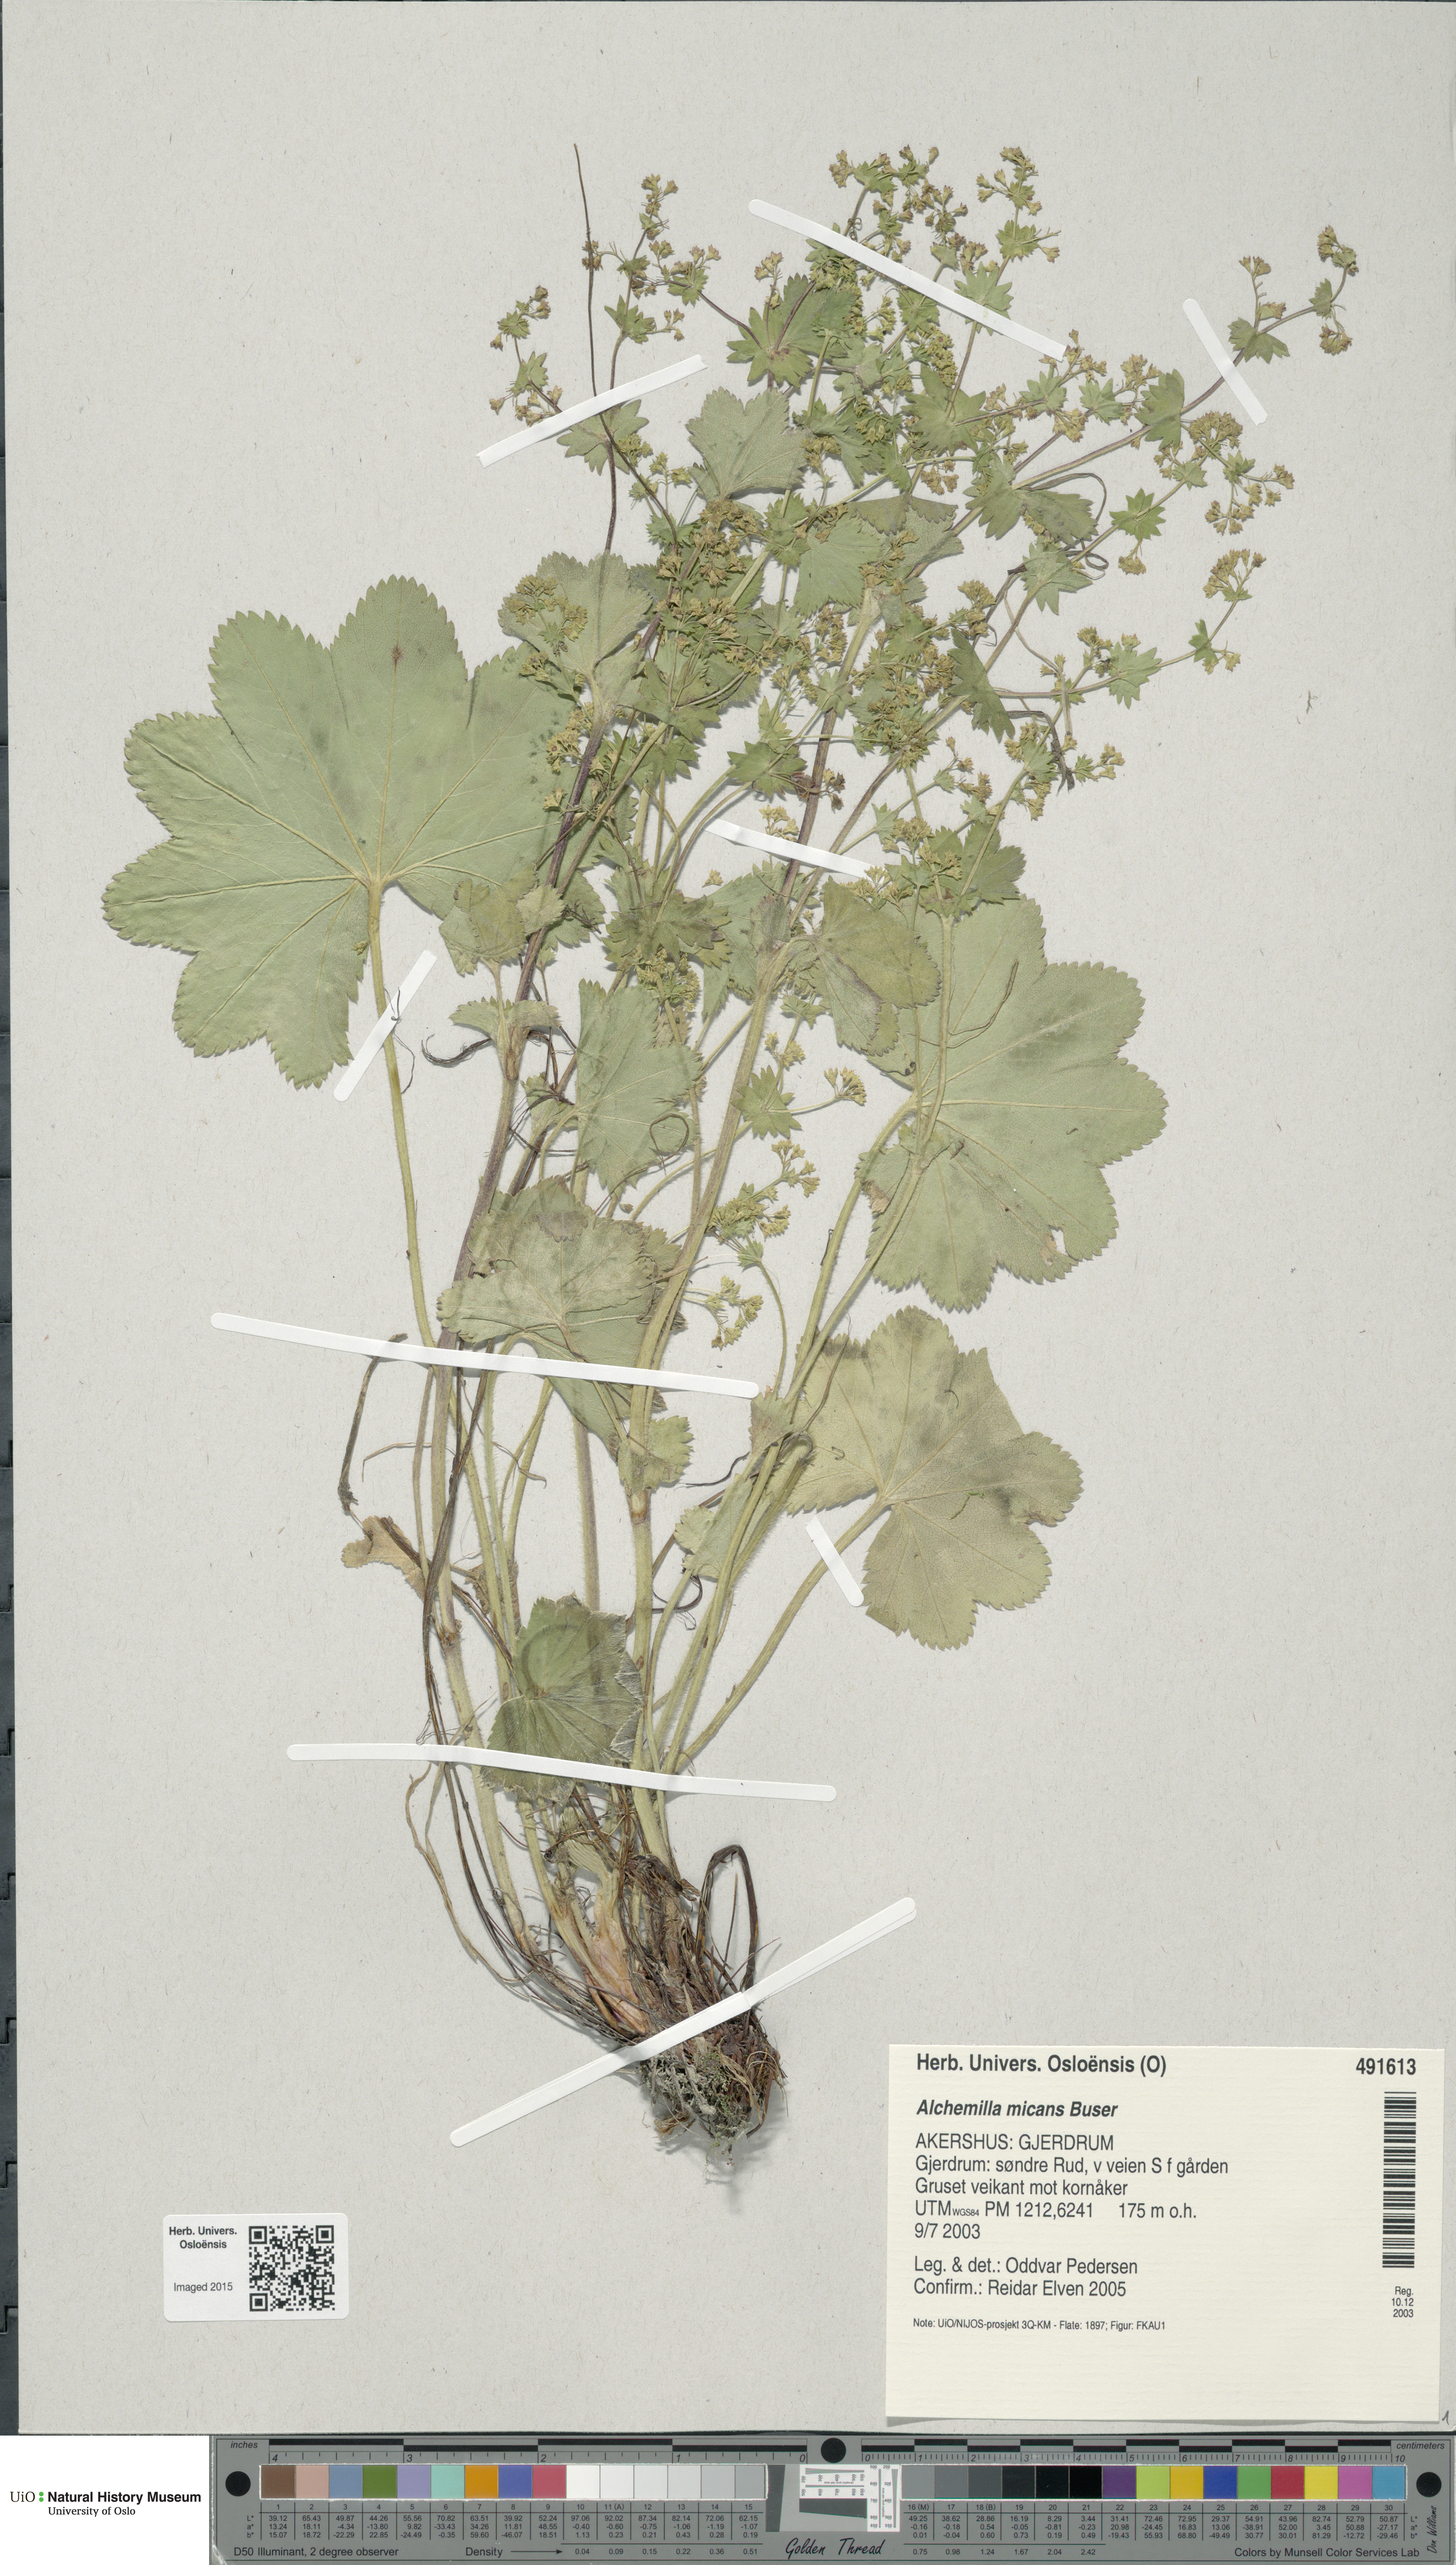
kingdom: Plantae
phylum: Tracheophyta
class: Magnoliopsida
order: Rosales
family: Rosaceae
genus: Alchemilla
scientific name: Alchemilla micans
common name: Gleaming lady's mantle
